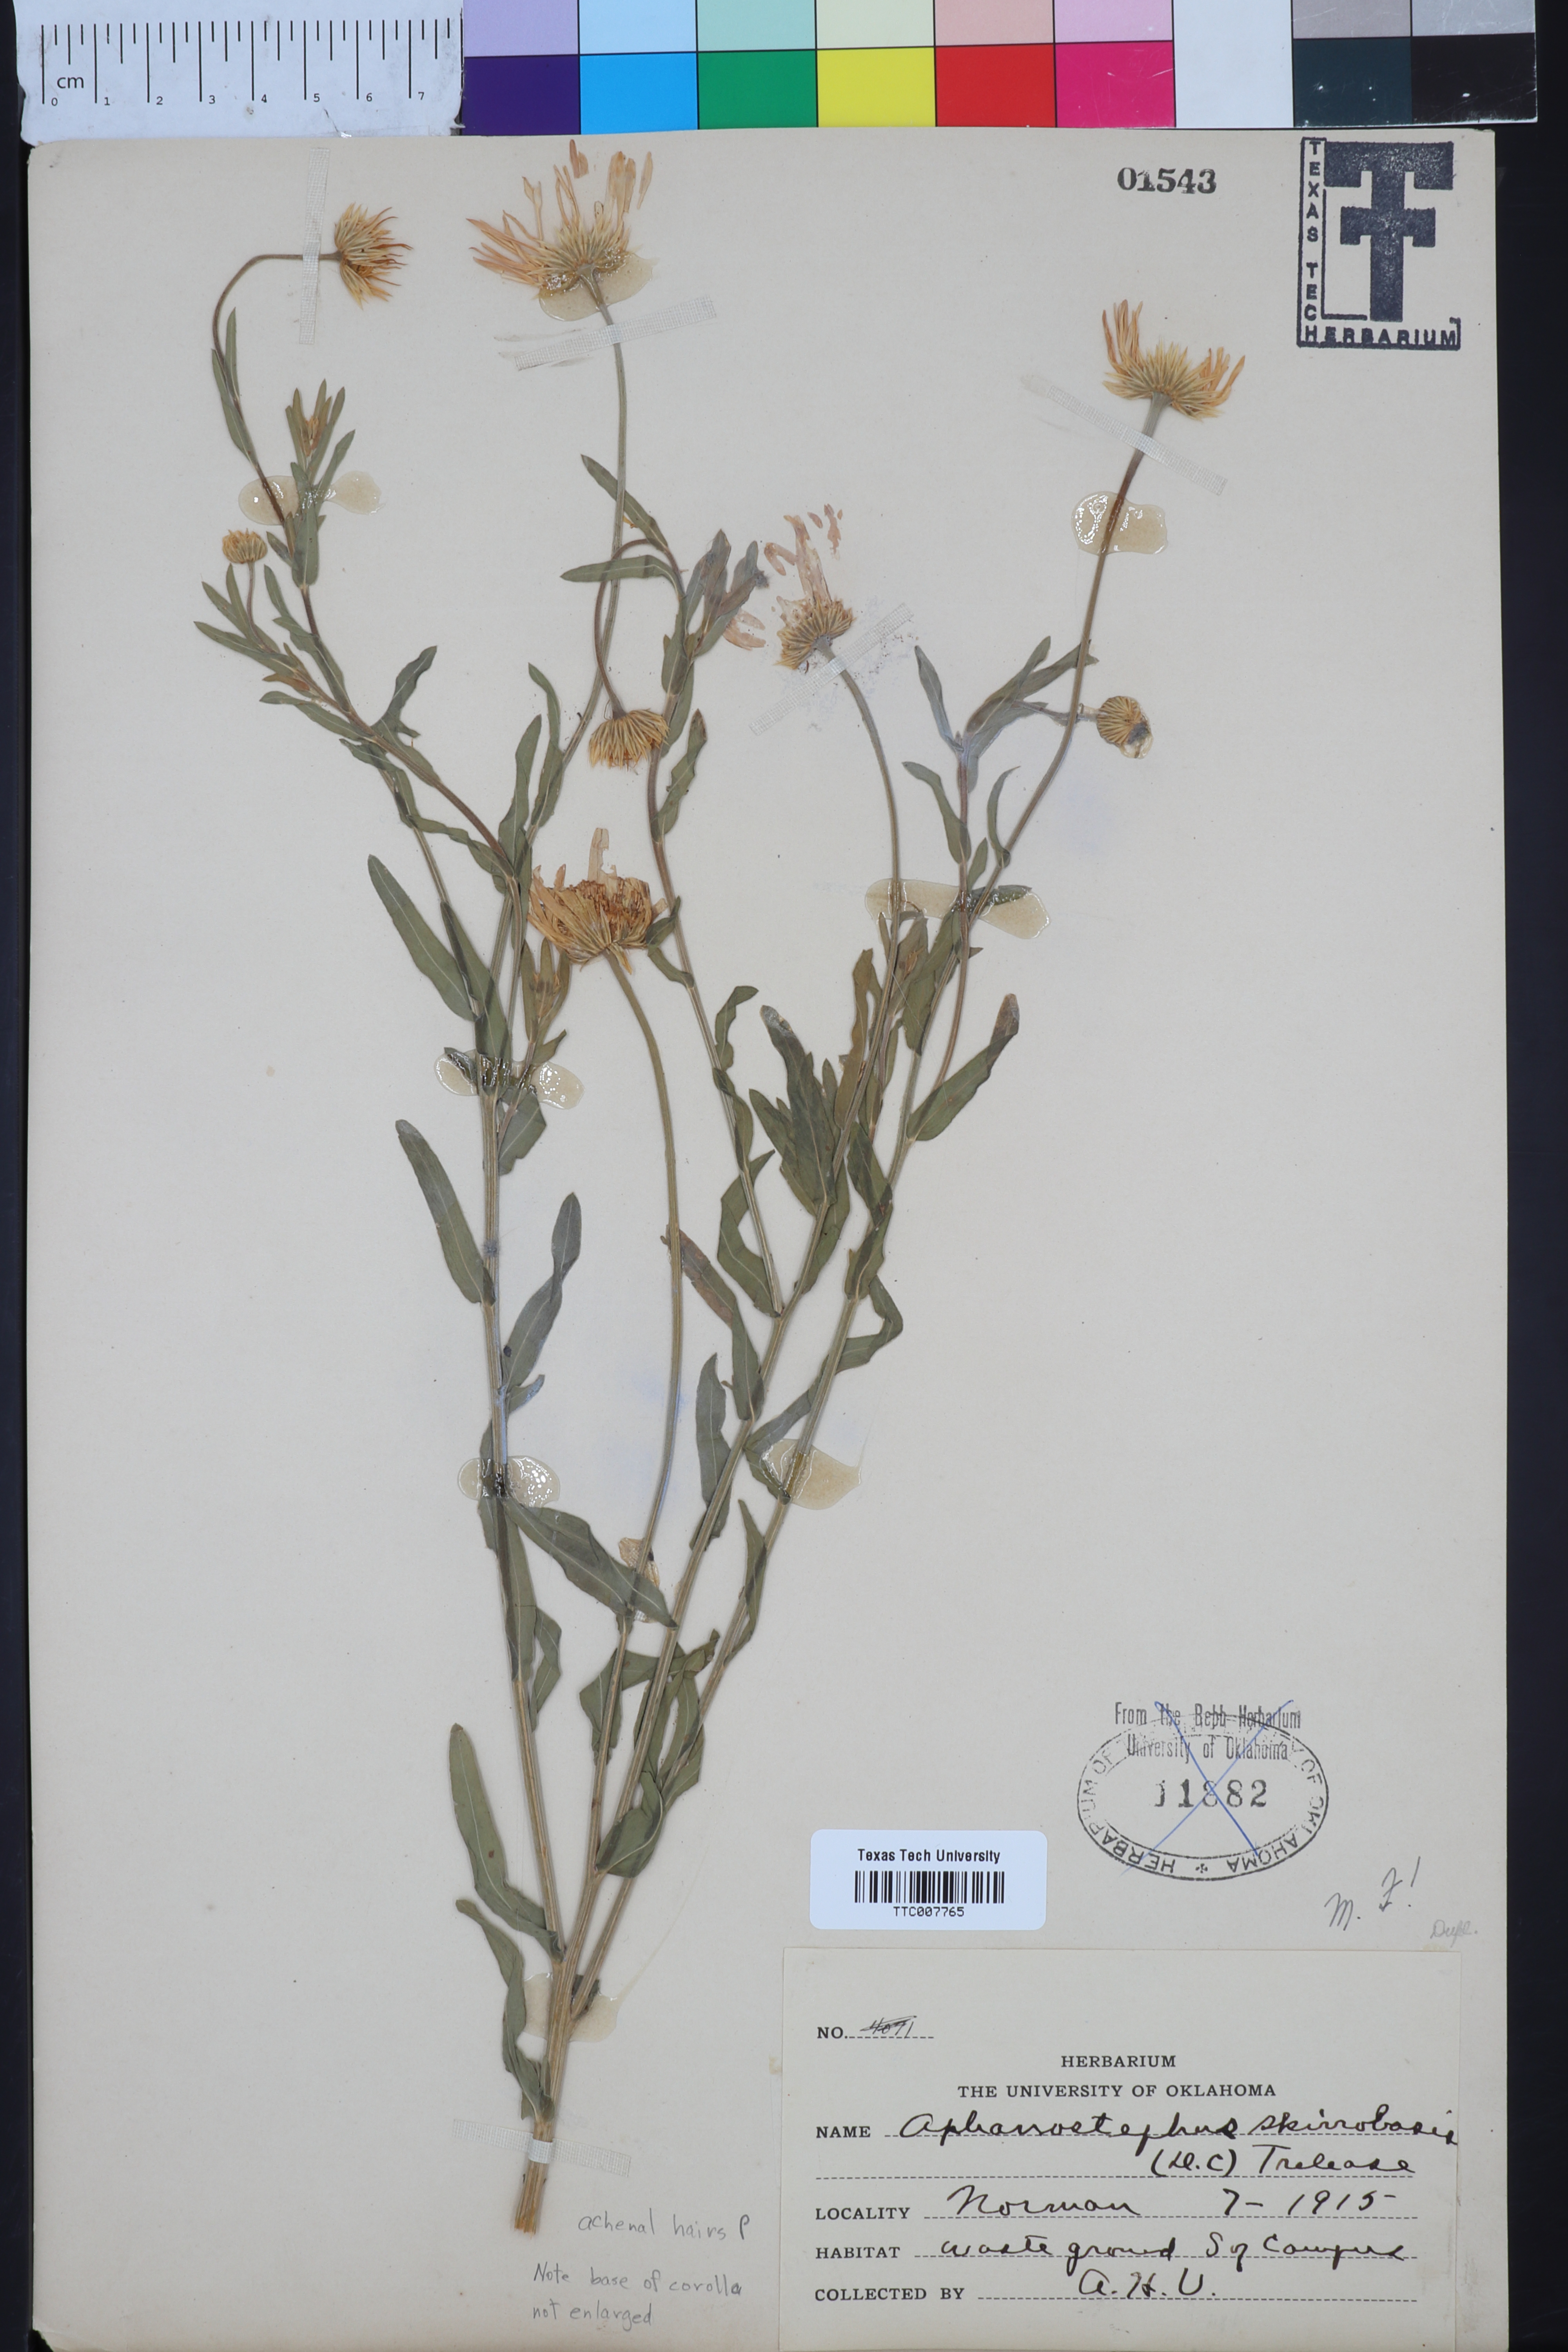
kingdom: Plantae
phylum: Tracheophyta
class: Magnoliopsida
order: Asterales
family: Asteraceae
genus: Aphanostephus
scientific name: Aphanostephus skirrhobasis
